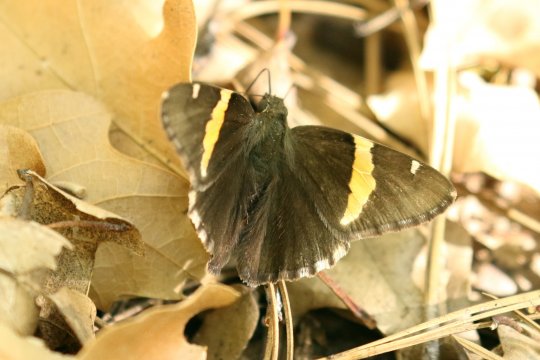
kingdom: Animalia
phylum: Arthropoda
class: Insecta
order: Lepidoptera
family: Hesperiidae
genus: Autochton
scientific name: Autochton cellus
